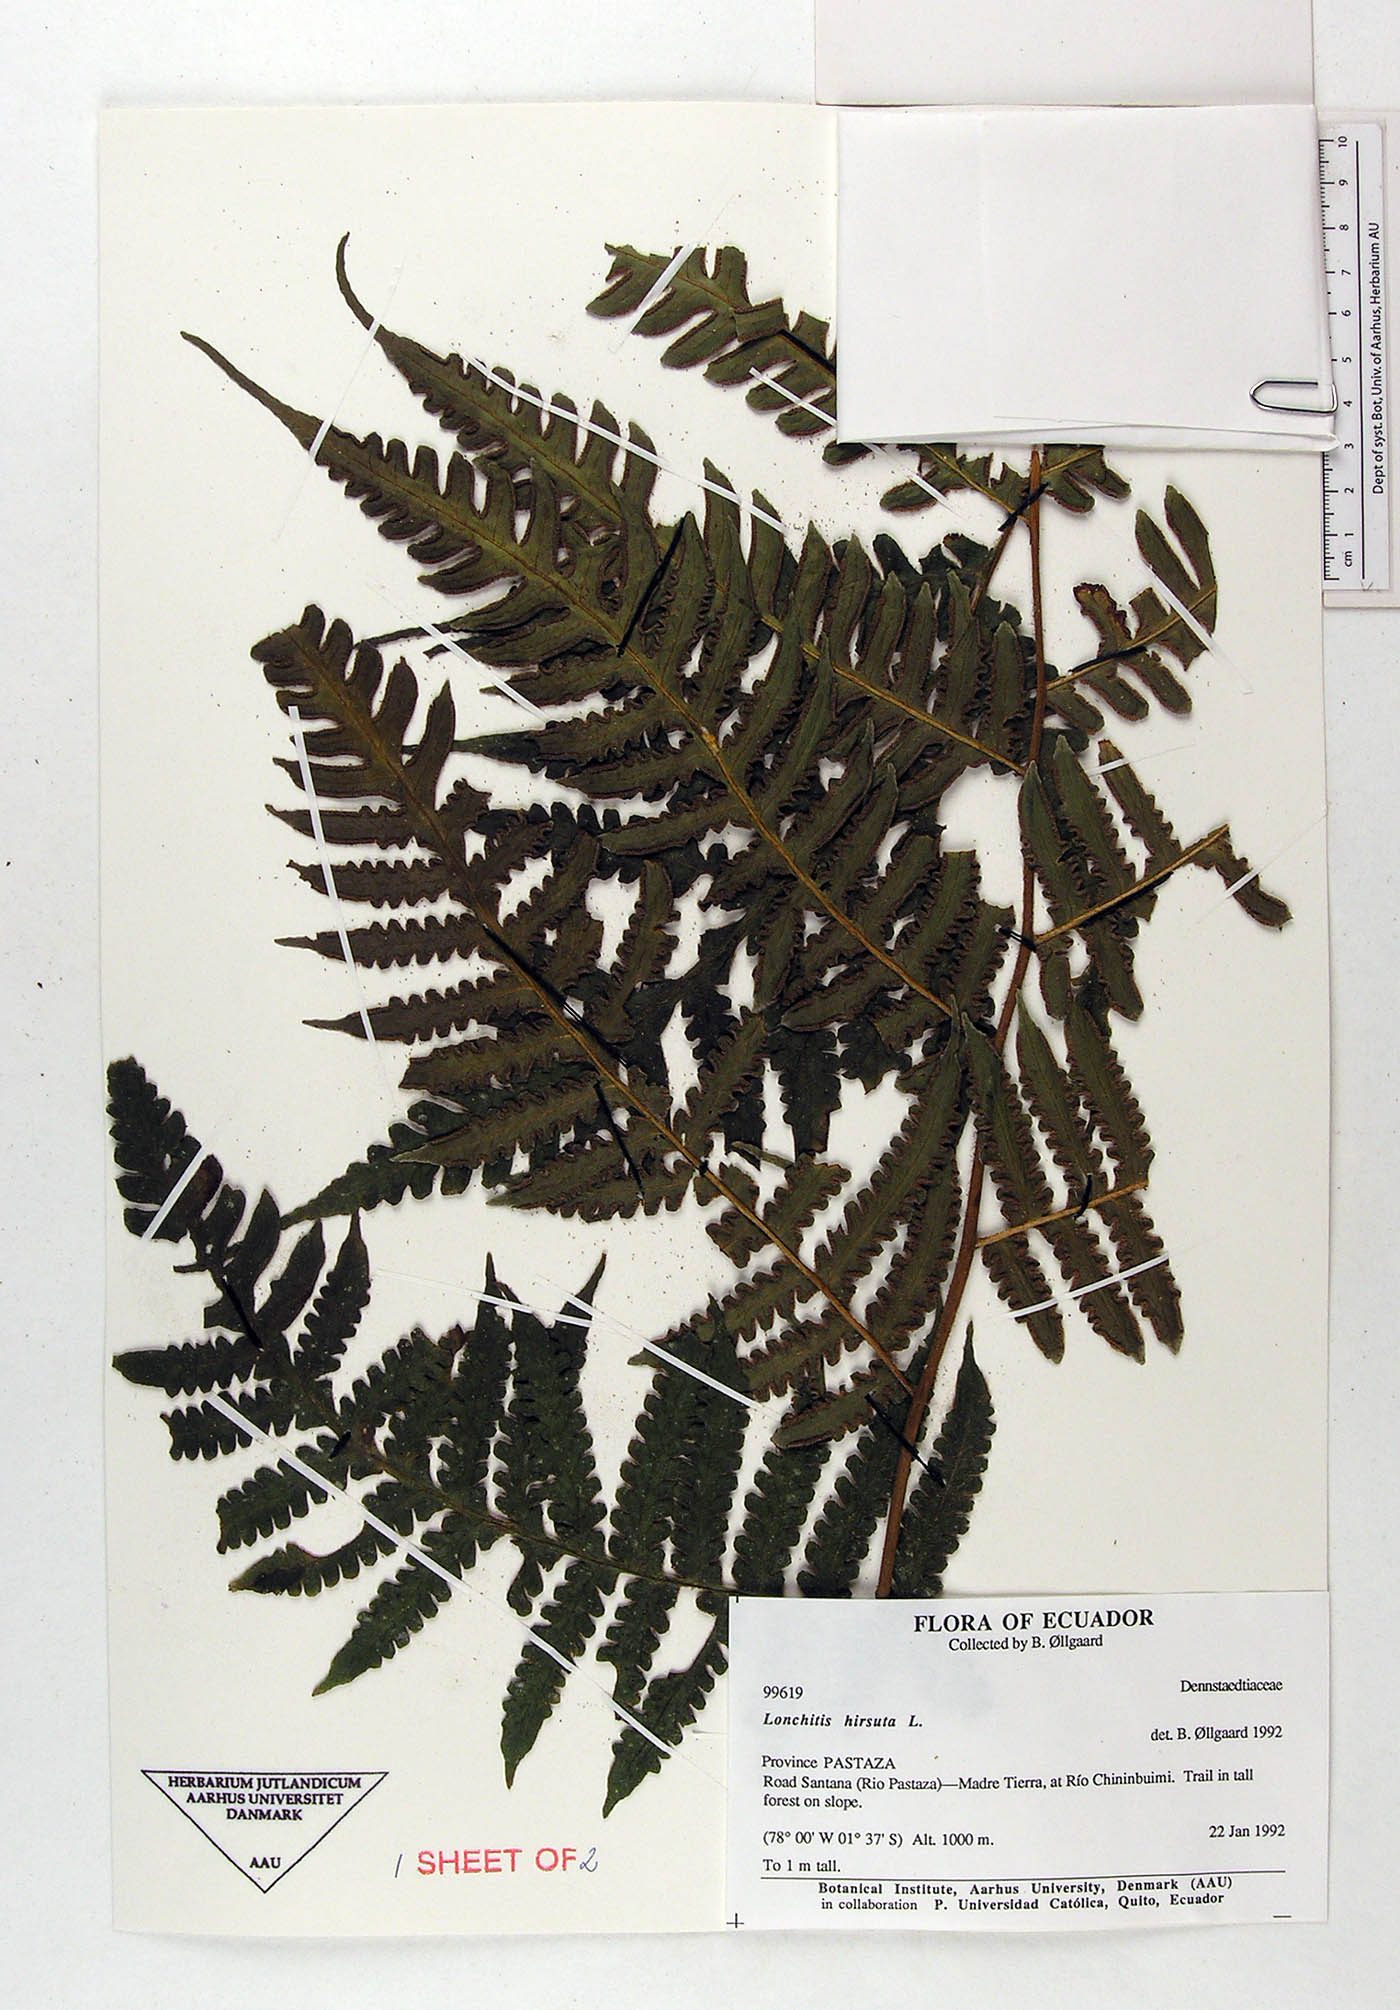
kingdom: Plantae
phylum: Tracheophyta
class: Polypodiopsida
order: Polypodiales
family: Lonchitidaceae
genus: Lonchitis
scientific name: Lonchitis hirsuta
